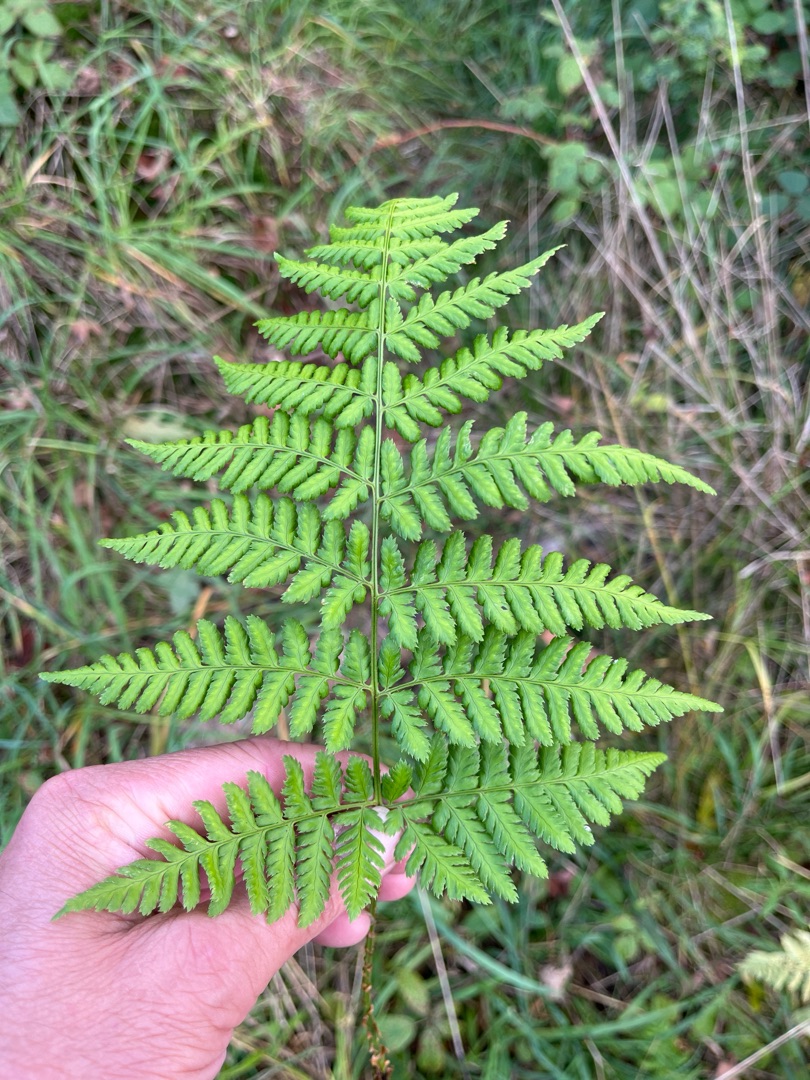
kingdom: Plantae
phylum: Tracheophyta
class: Polypodiopsida
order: Polypodiales
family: Dryopteridaceae
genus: Dryopteris
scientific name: Dryopteris dilatata
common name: Bredbladet mangeløv
